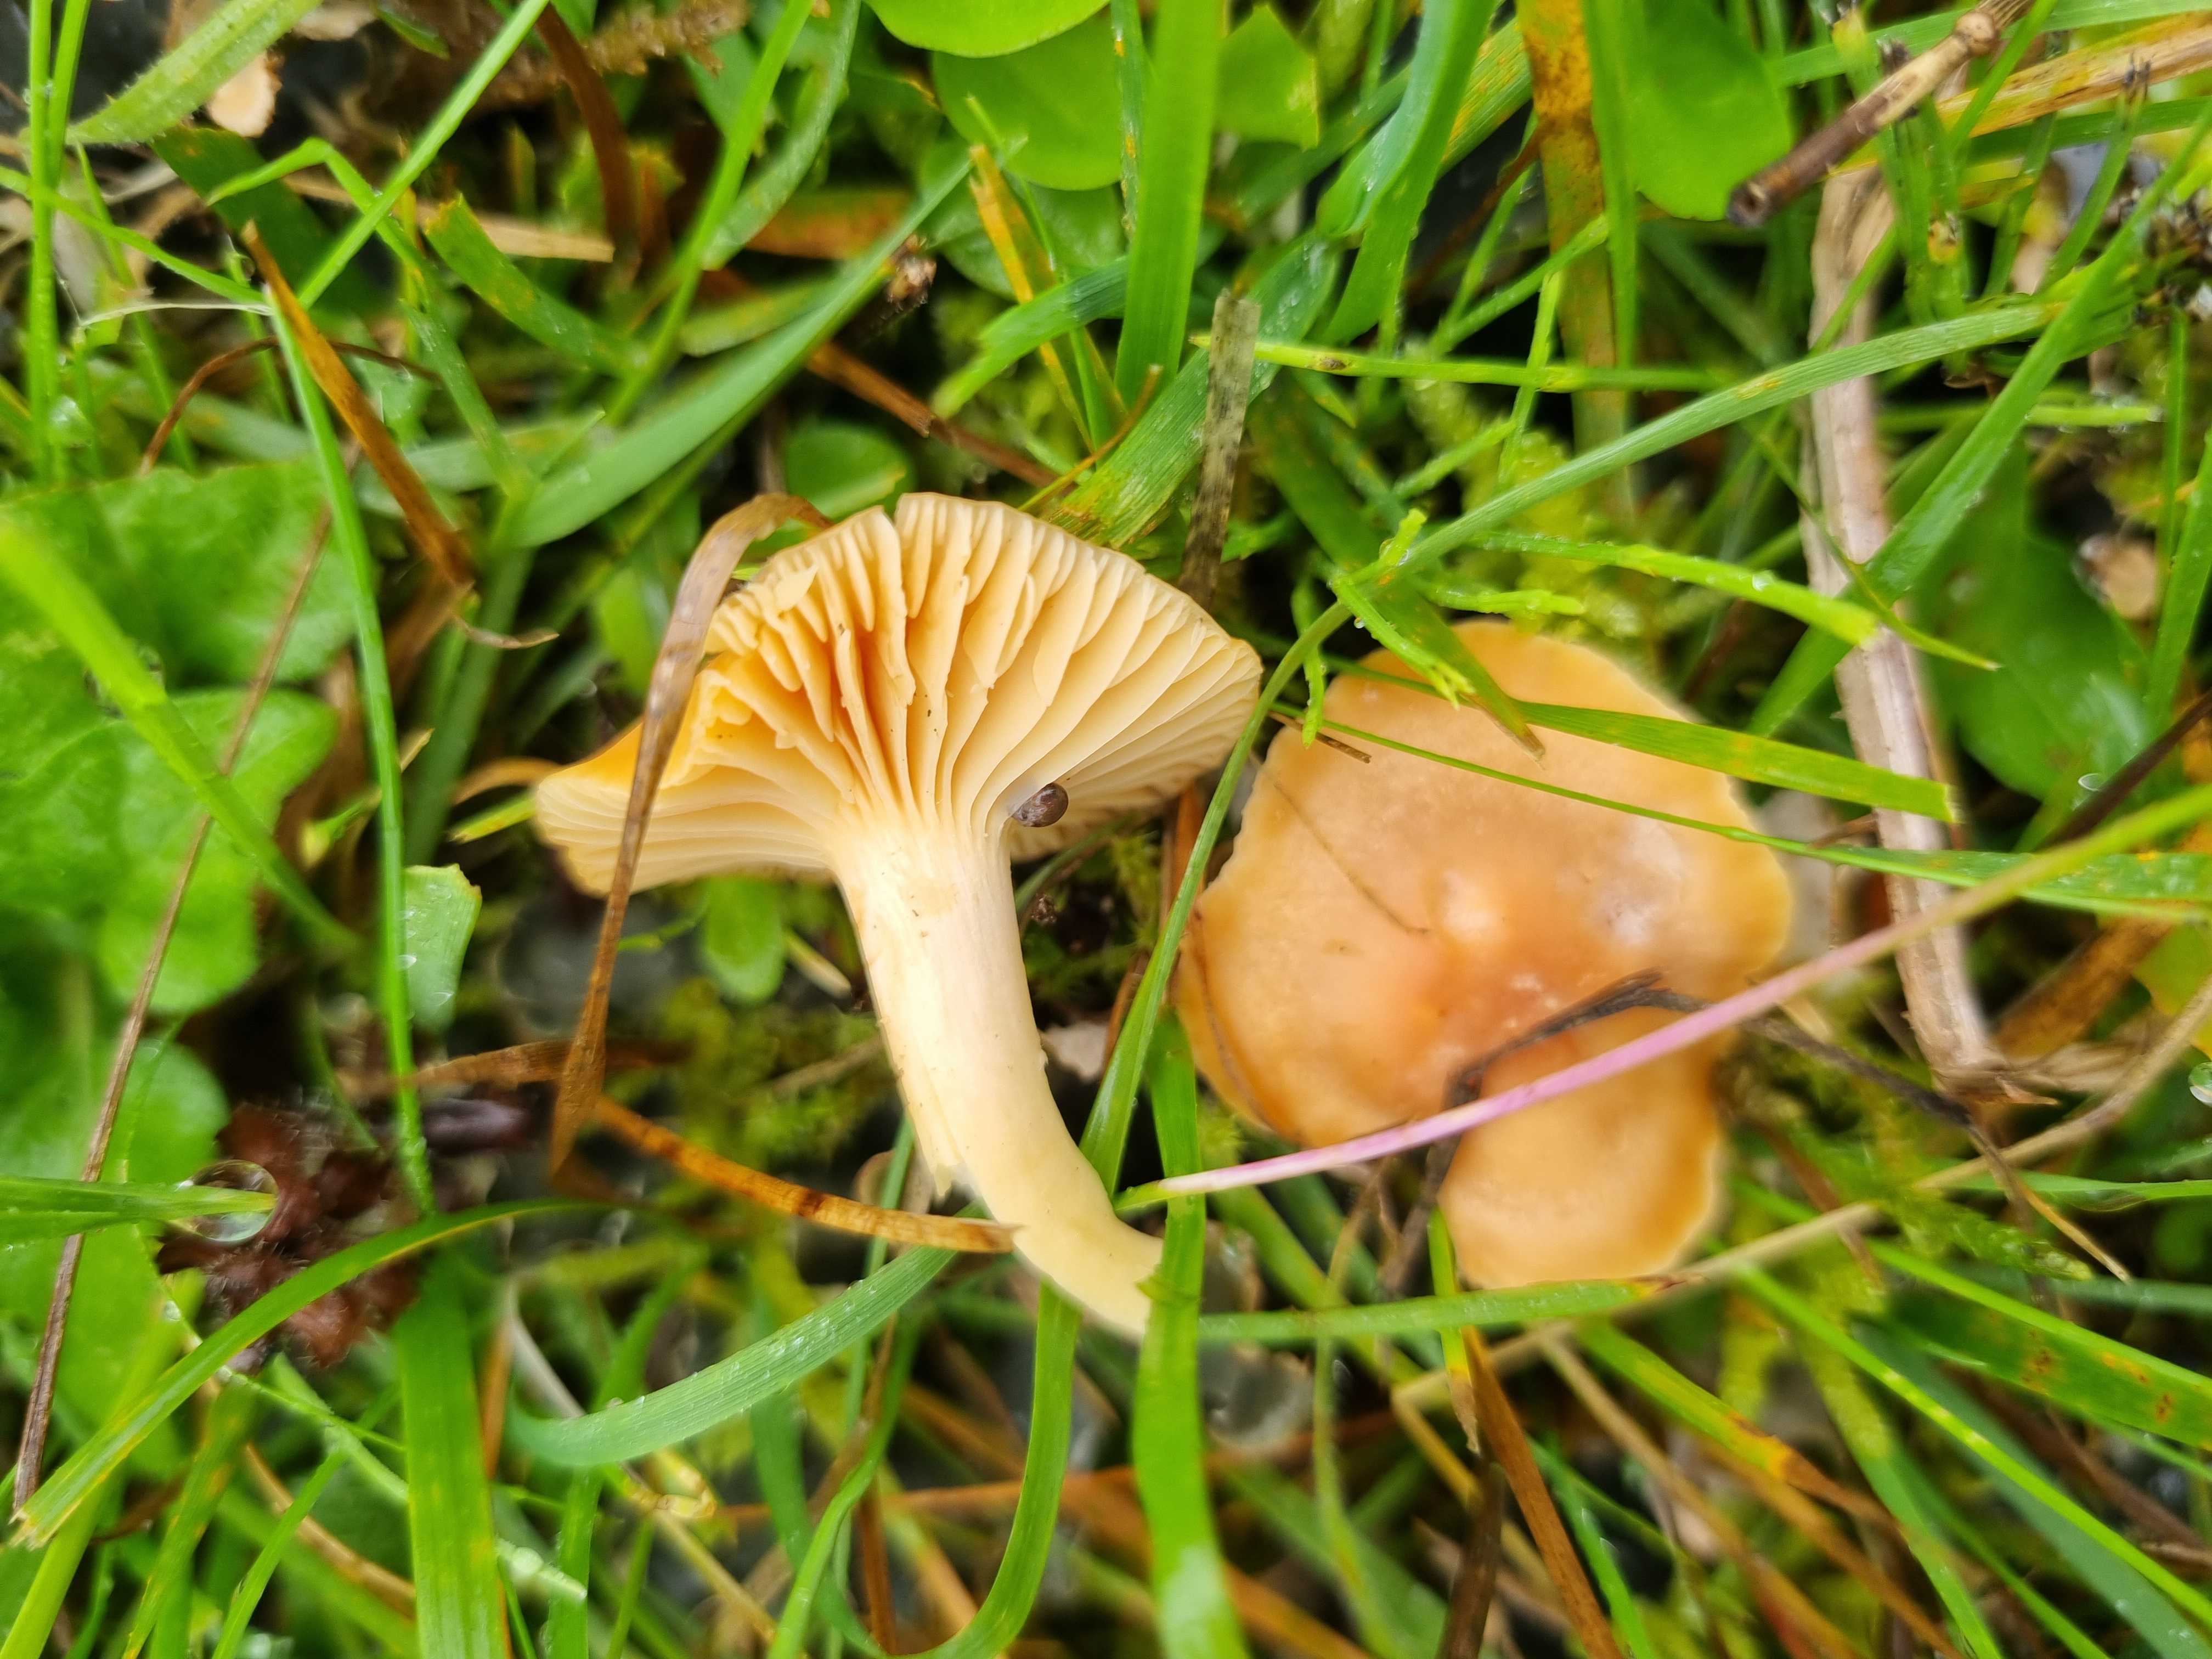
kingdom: Fungi
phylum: Basidiomycota
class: Agaricomycetes
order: Agaricales
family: Hygrophoraceae
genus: Cuphophyllus
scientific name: Cuphophyllus pratensis
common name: eng-vokshat
